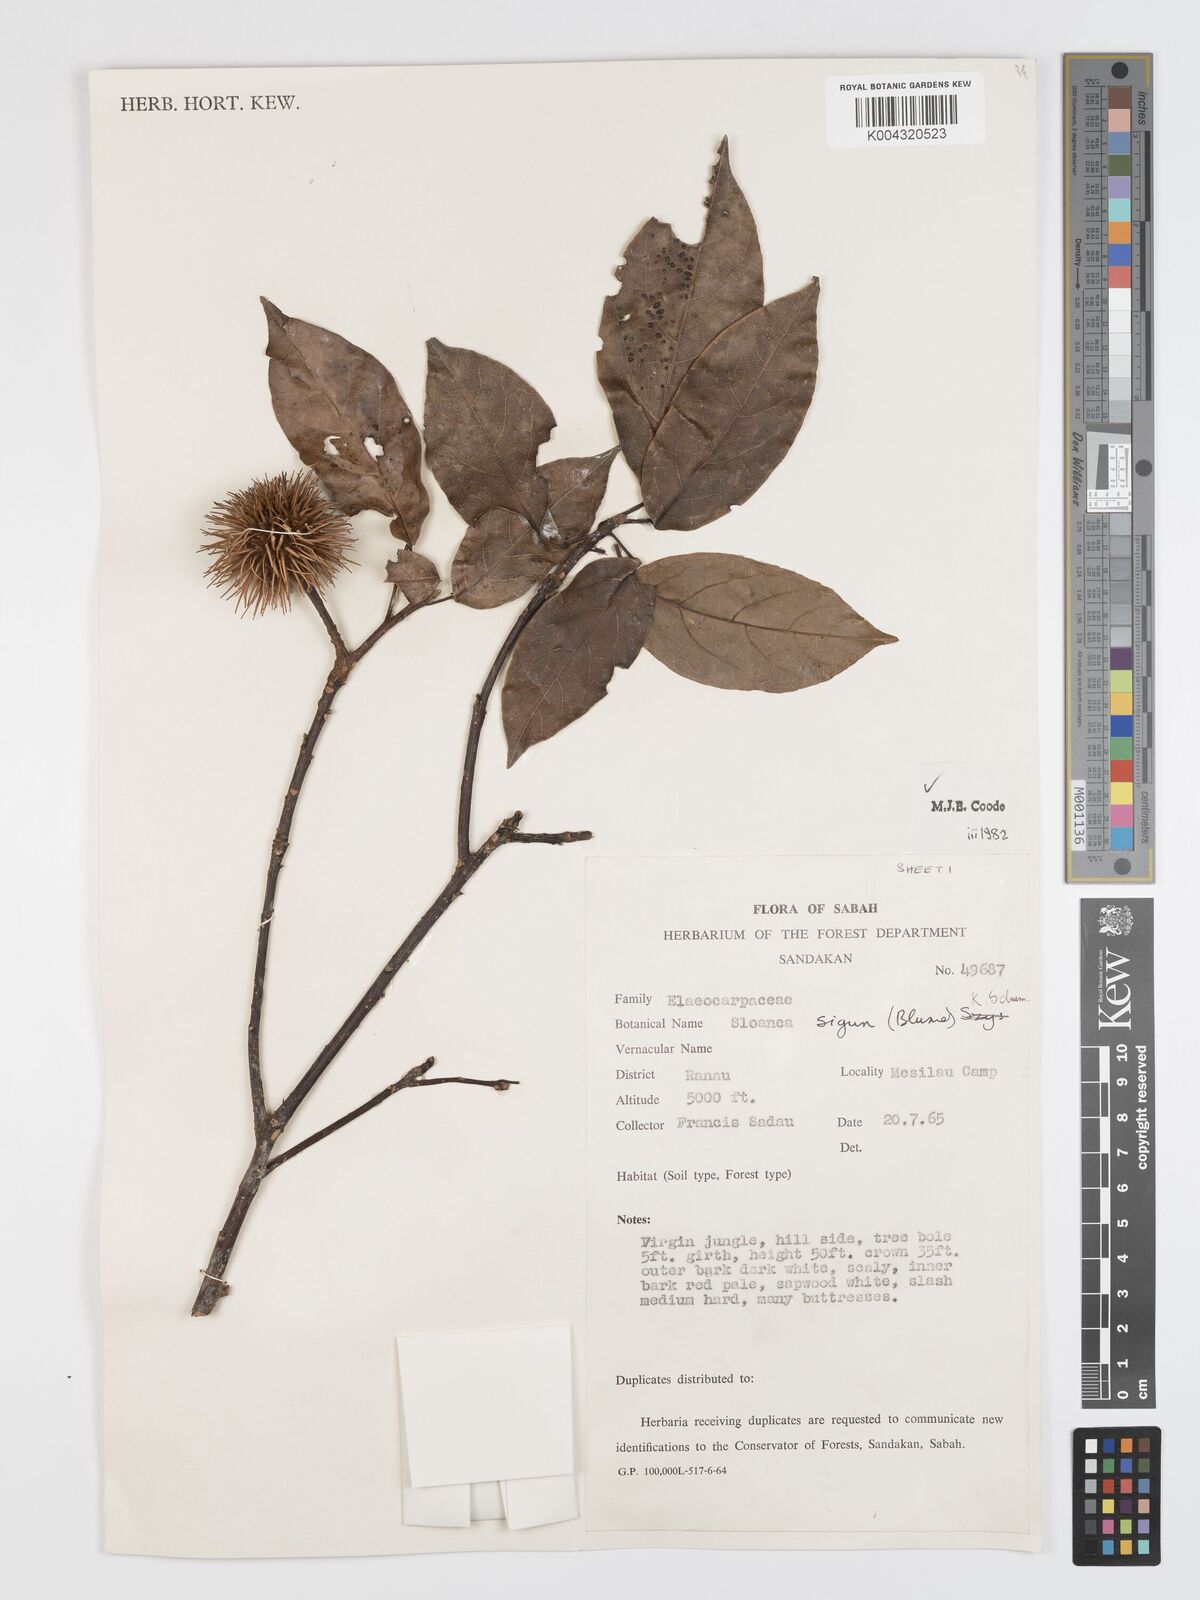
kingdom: Plantae
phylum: Tracheophyta
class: Magnoliopsida
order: Oxalidales
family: Elaeocarpaceae
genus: Sloanea
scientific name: Sloanea sigun
